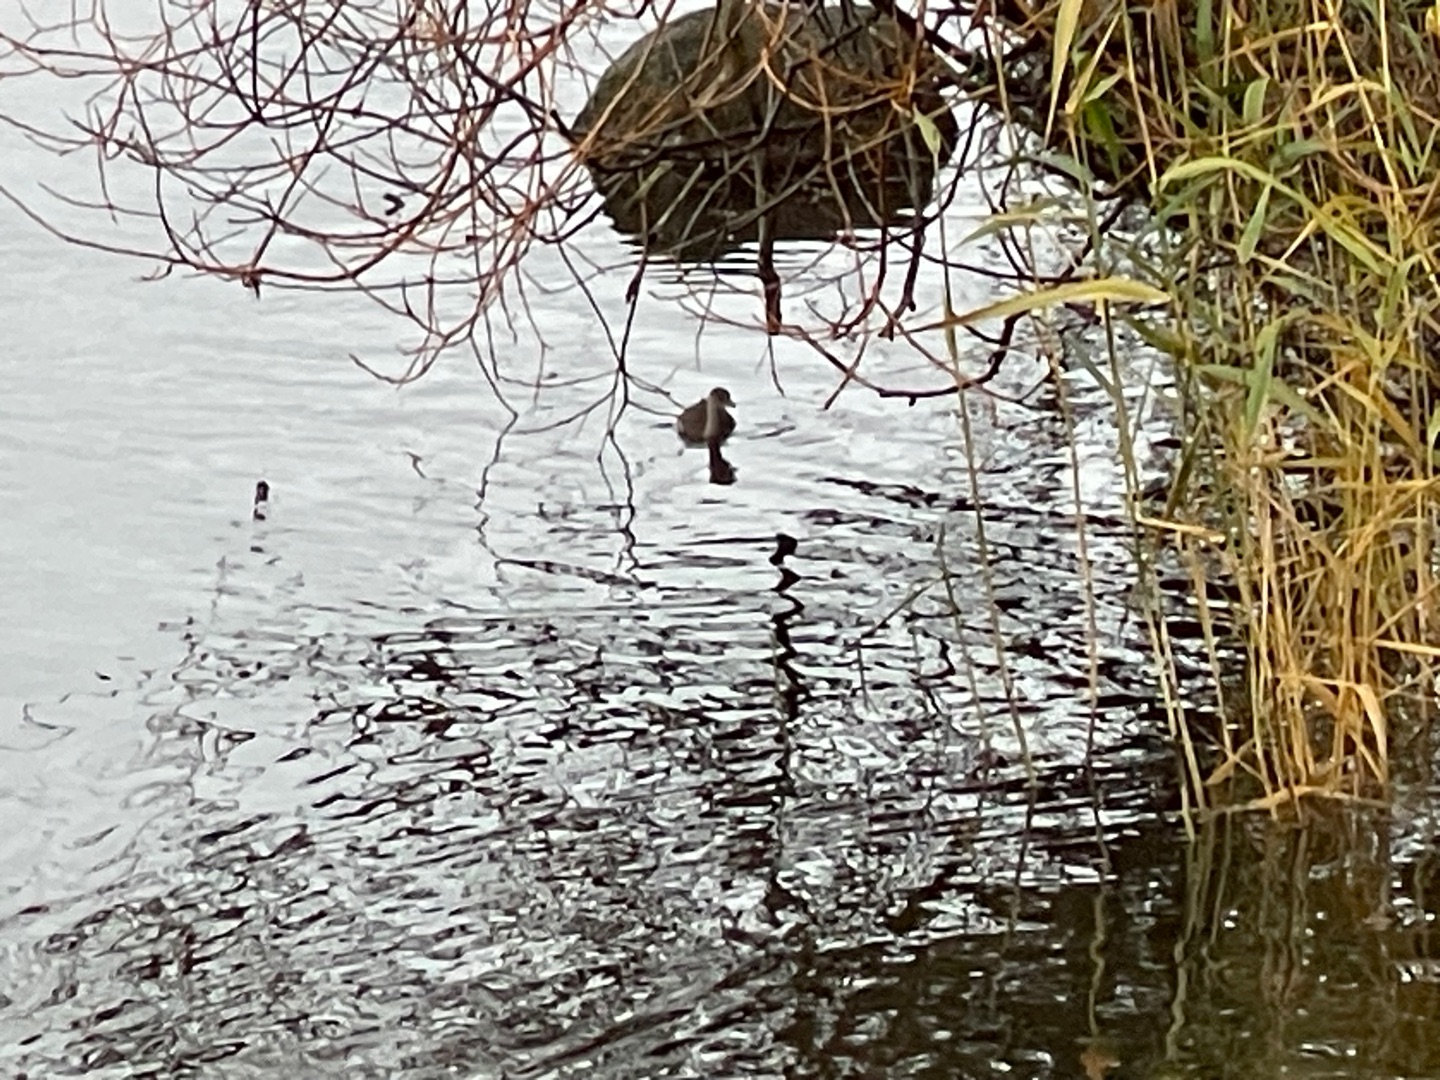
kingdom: Animalia
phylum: Chordata
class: Aves
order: Podicipediformes
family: Podicipedidae
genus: Tachybaptus
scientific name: Tachybaptus ruficollis
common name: Lille lappedykker
